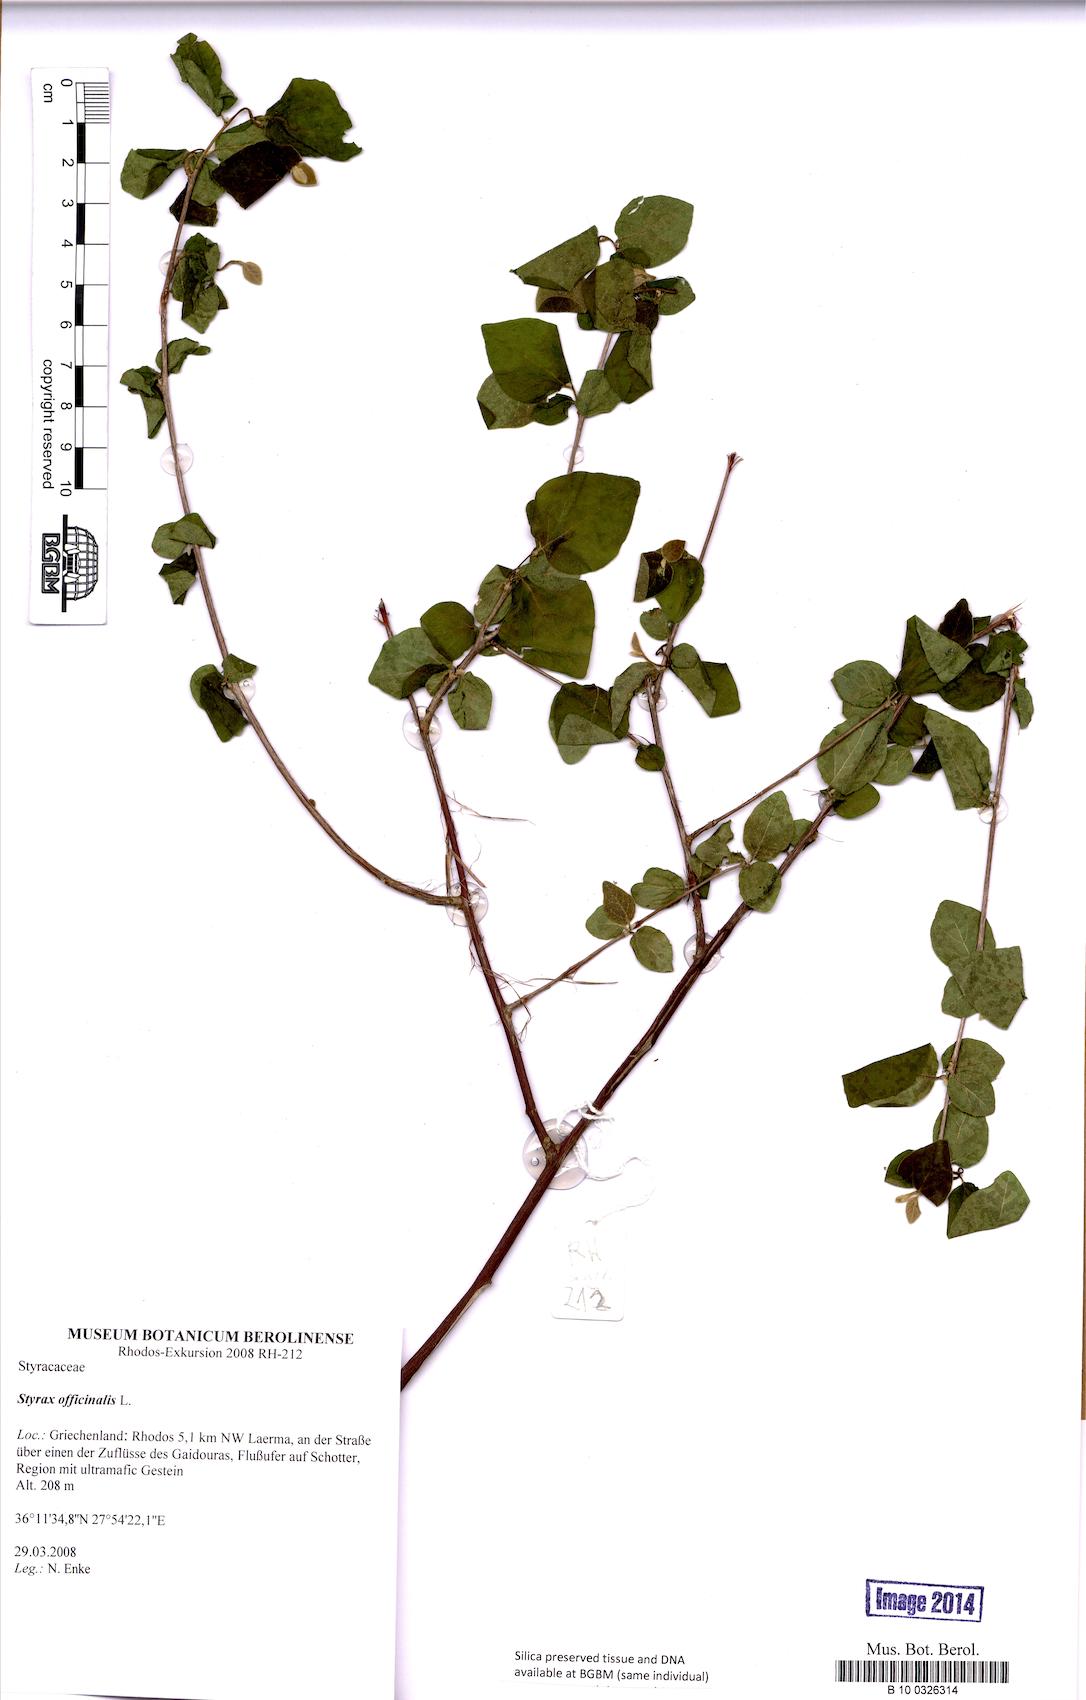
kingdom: Plantae
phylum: Tracheophyta
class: Magnoliopsida
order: Ericales
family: Styracaceae
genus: Styrax
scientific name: Styrax officinalis
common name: Storax
